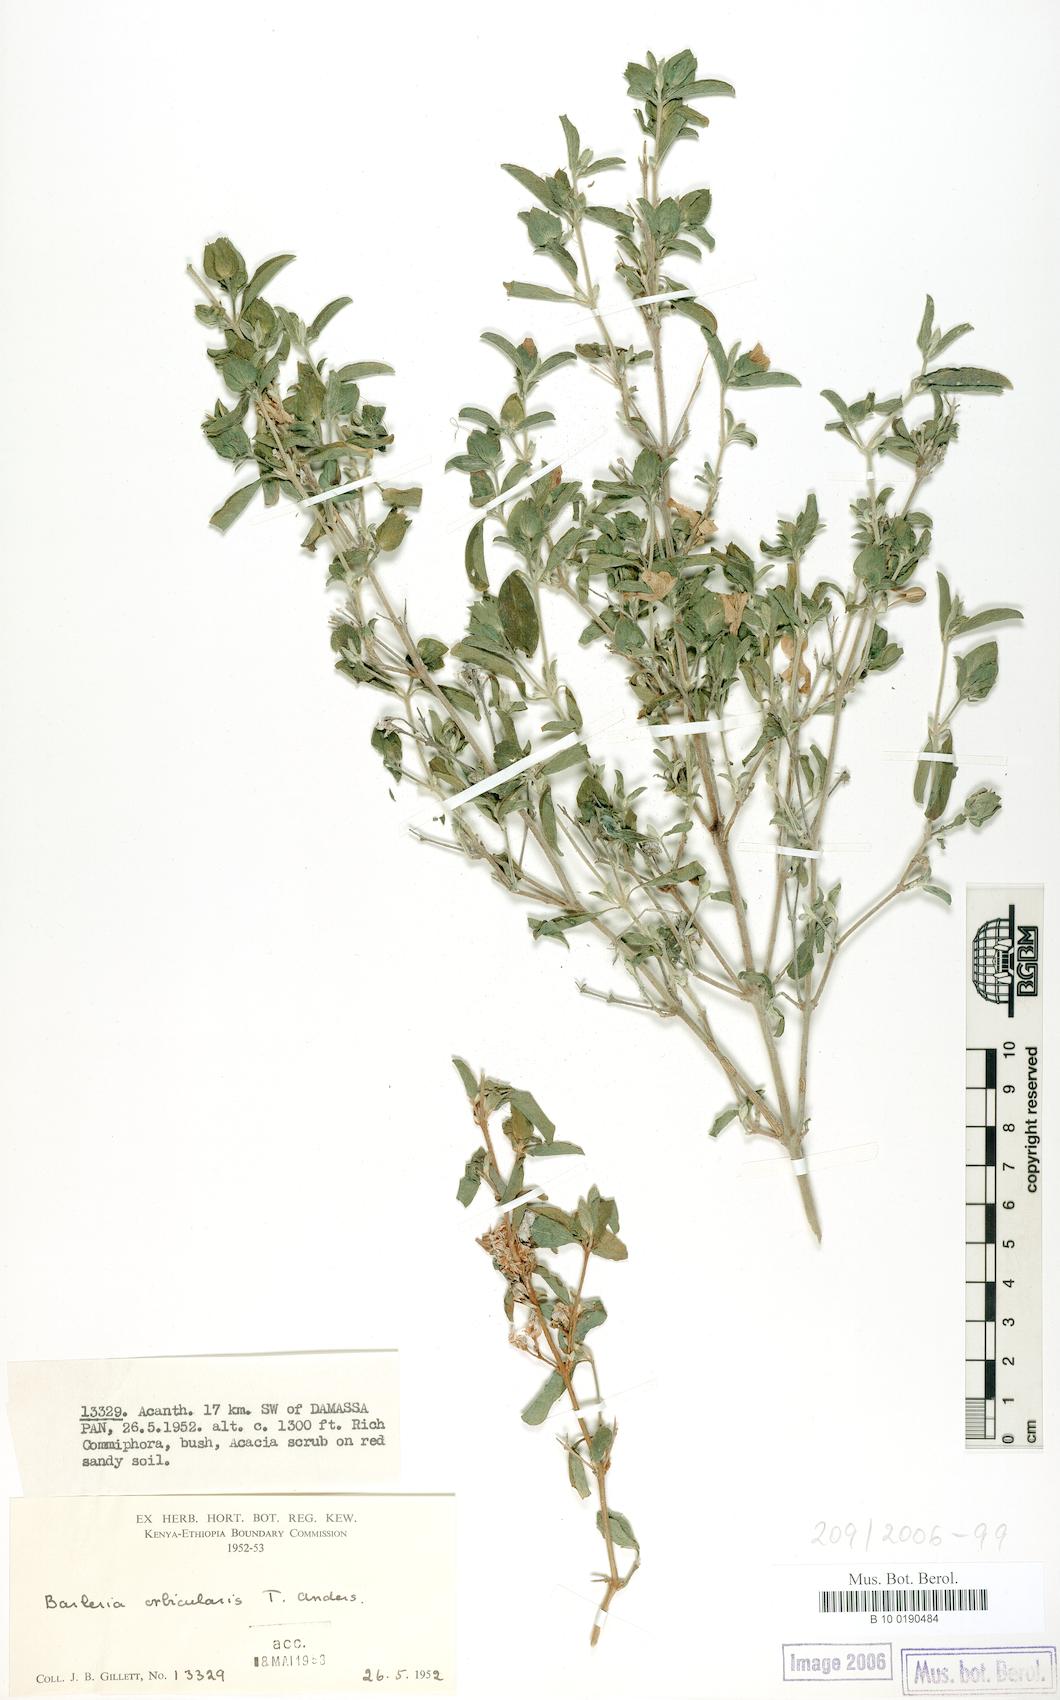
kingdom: Plantae
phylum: Tracheophyta
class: Magnoliopsida
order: Lamiales
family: Acanthaceae
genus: Barleria
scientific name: Barleria orbicularis
